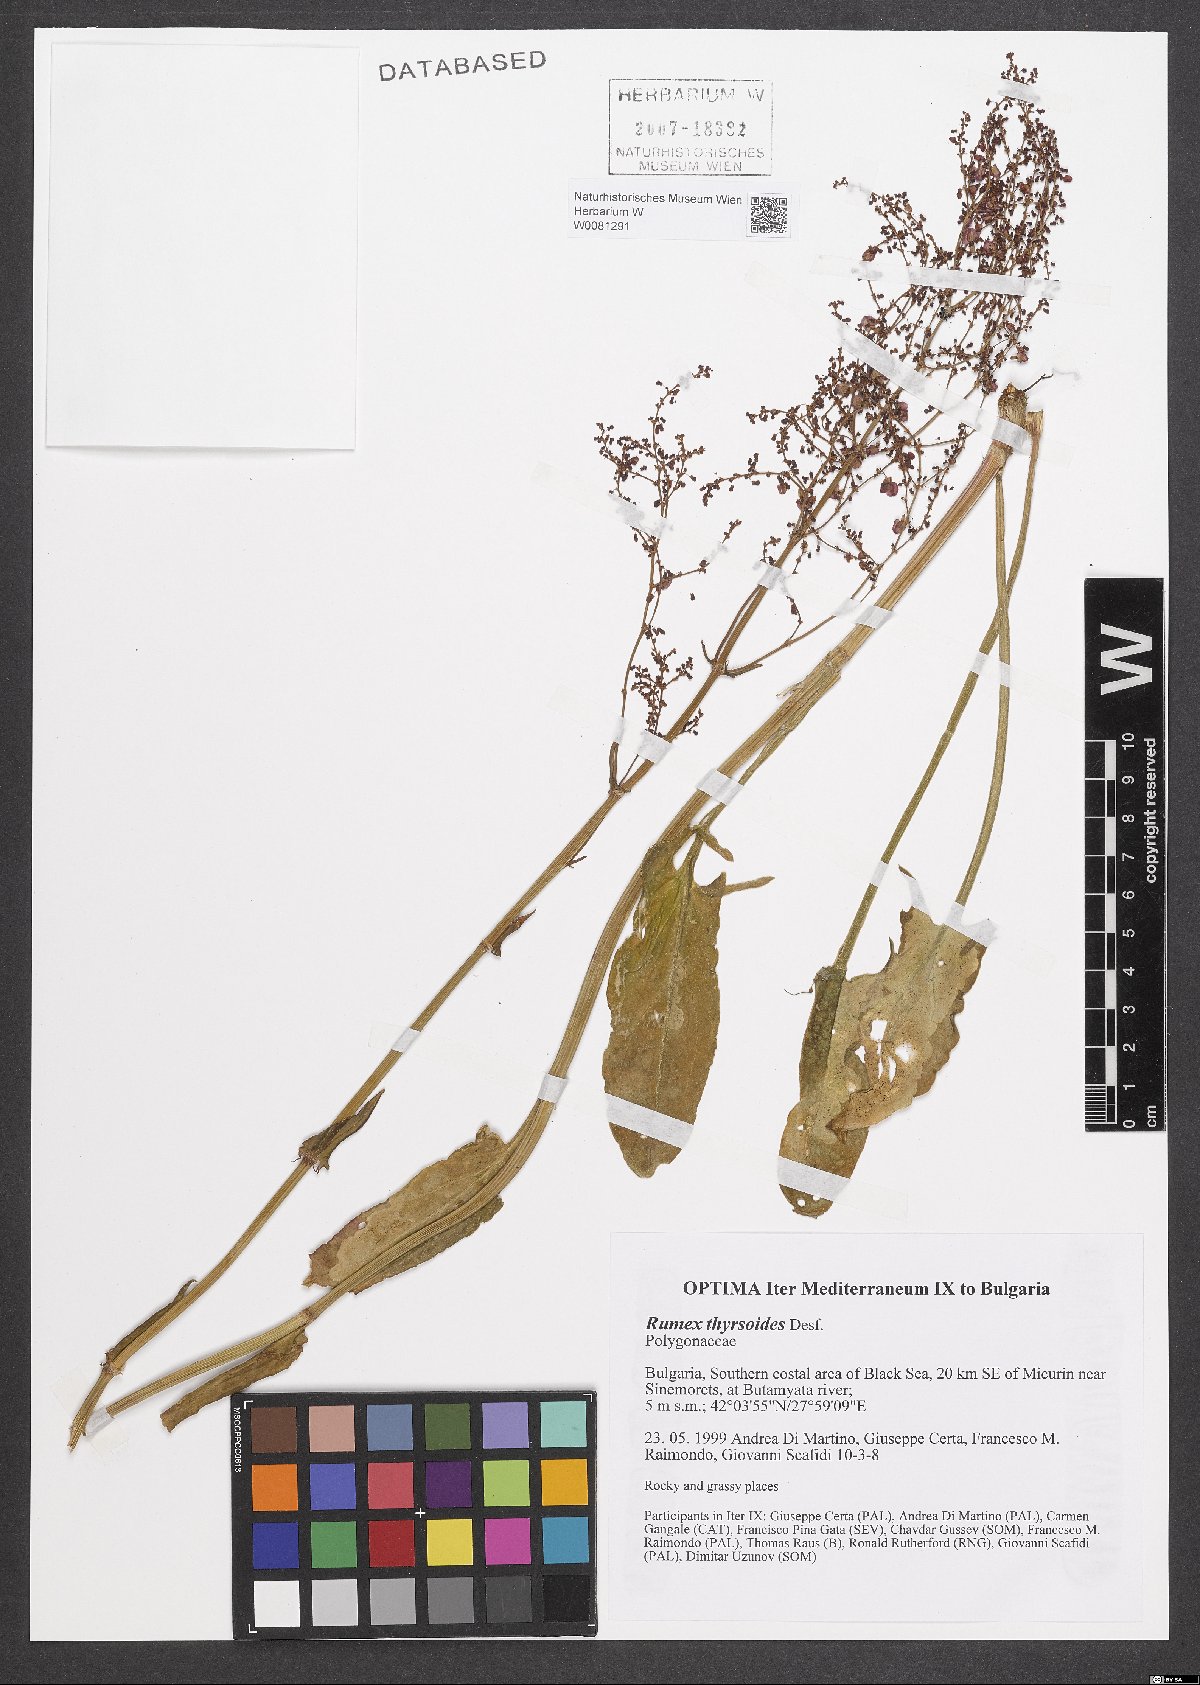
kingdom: Plantae
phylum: Tracheophyta
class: Magnoliopsida
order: Caryophyllales
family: Polygonaceae
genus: Rumex
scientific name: Rumex thyrsoides
